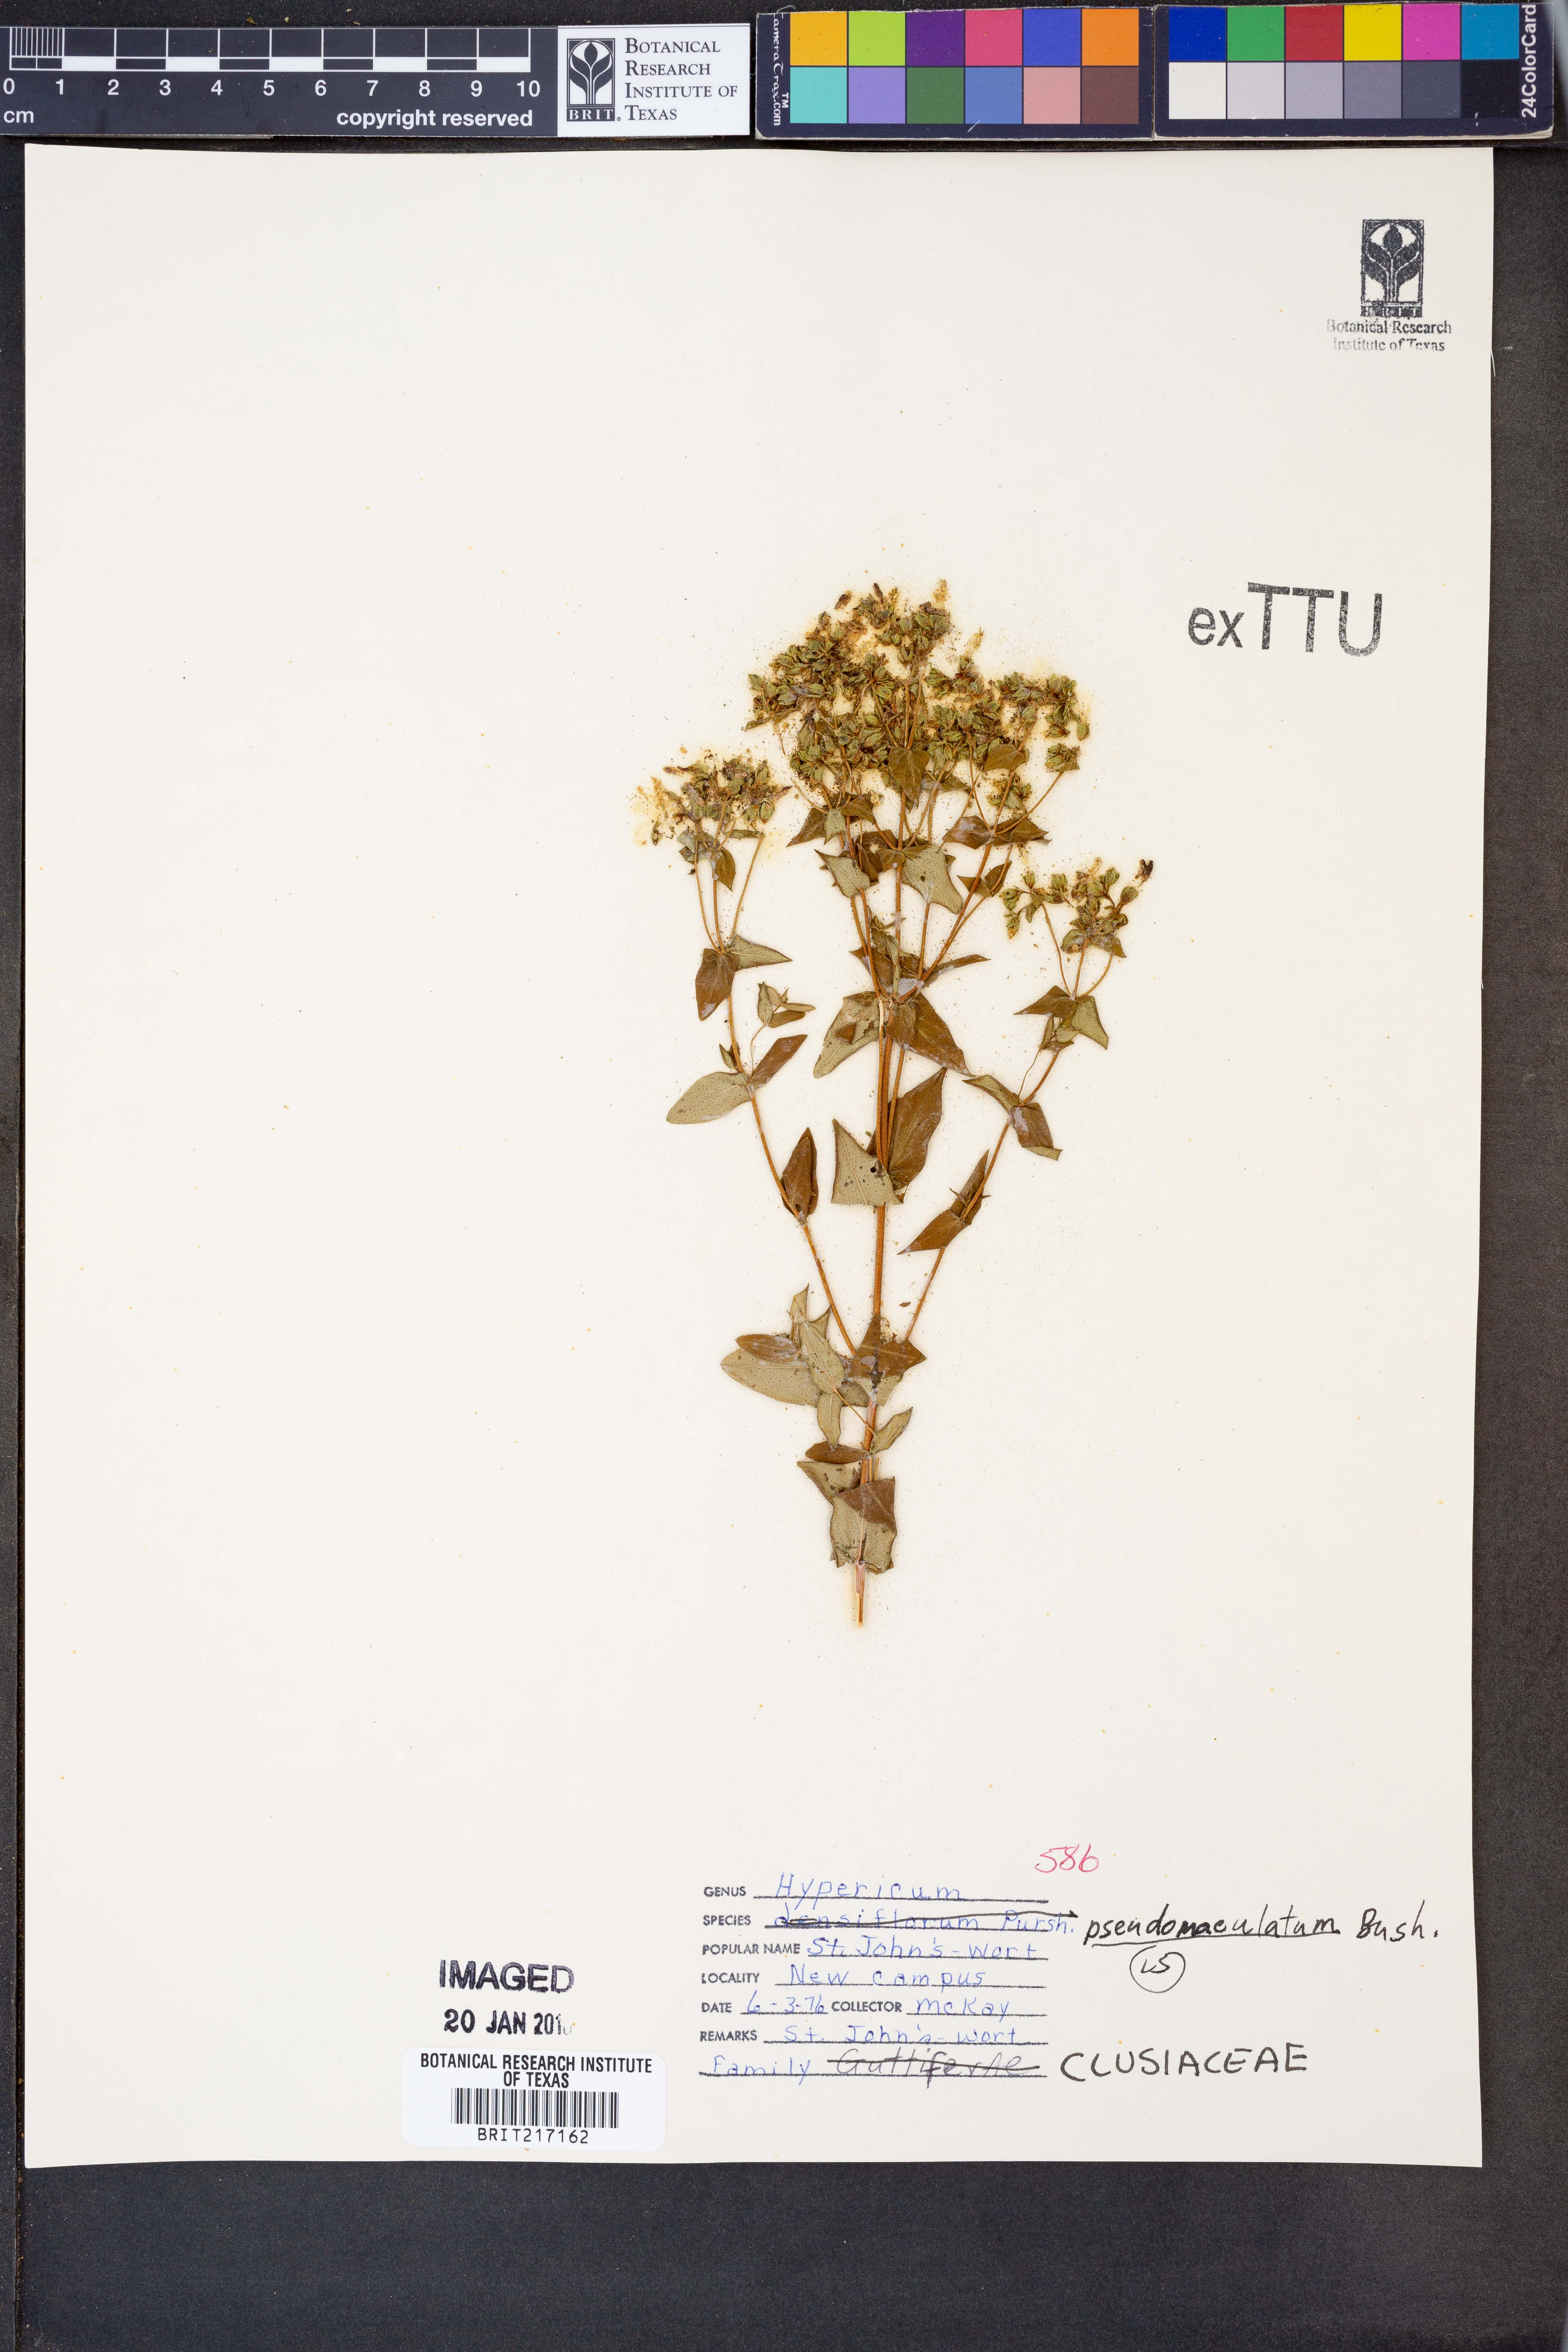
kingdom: Plantae
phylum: Tracheophyta
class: Magnoliopsida
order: Malpighiales
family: Hypericaceae
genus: Hypericum
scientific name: Hypericum pseudomaculatum
